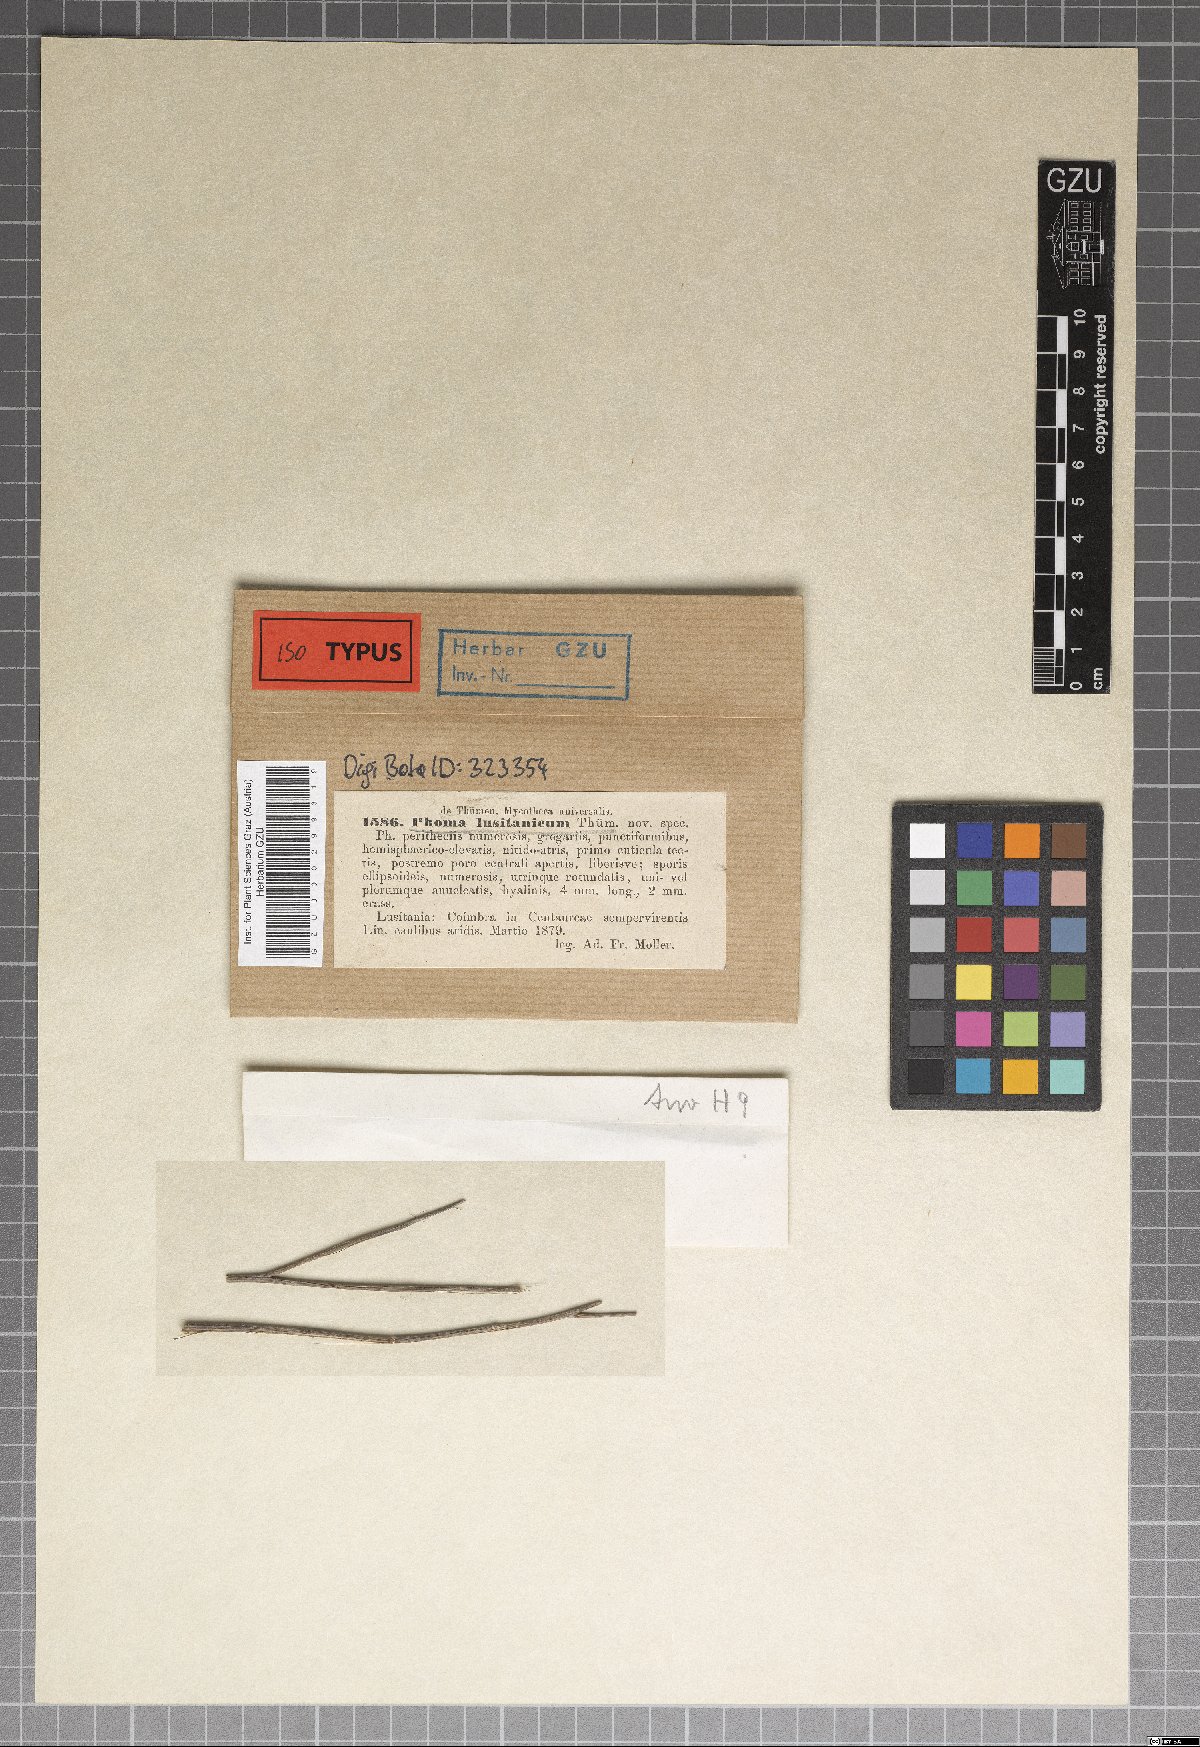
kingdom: Fungi
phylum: Ascomycota
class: Dothideomycetes
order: Pleosporales
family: Didymellaceae
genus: Phoma
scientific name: Phoma lusitanica
